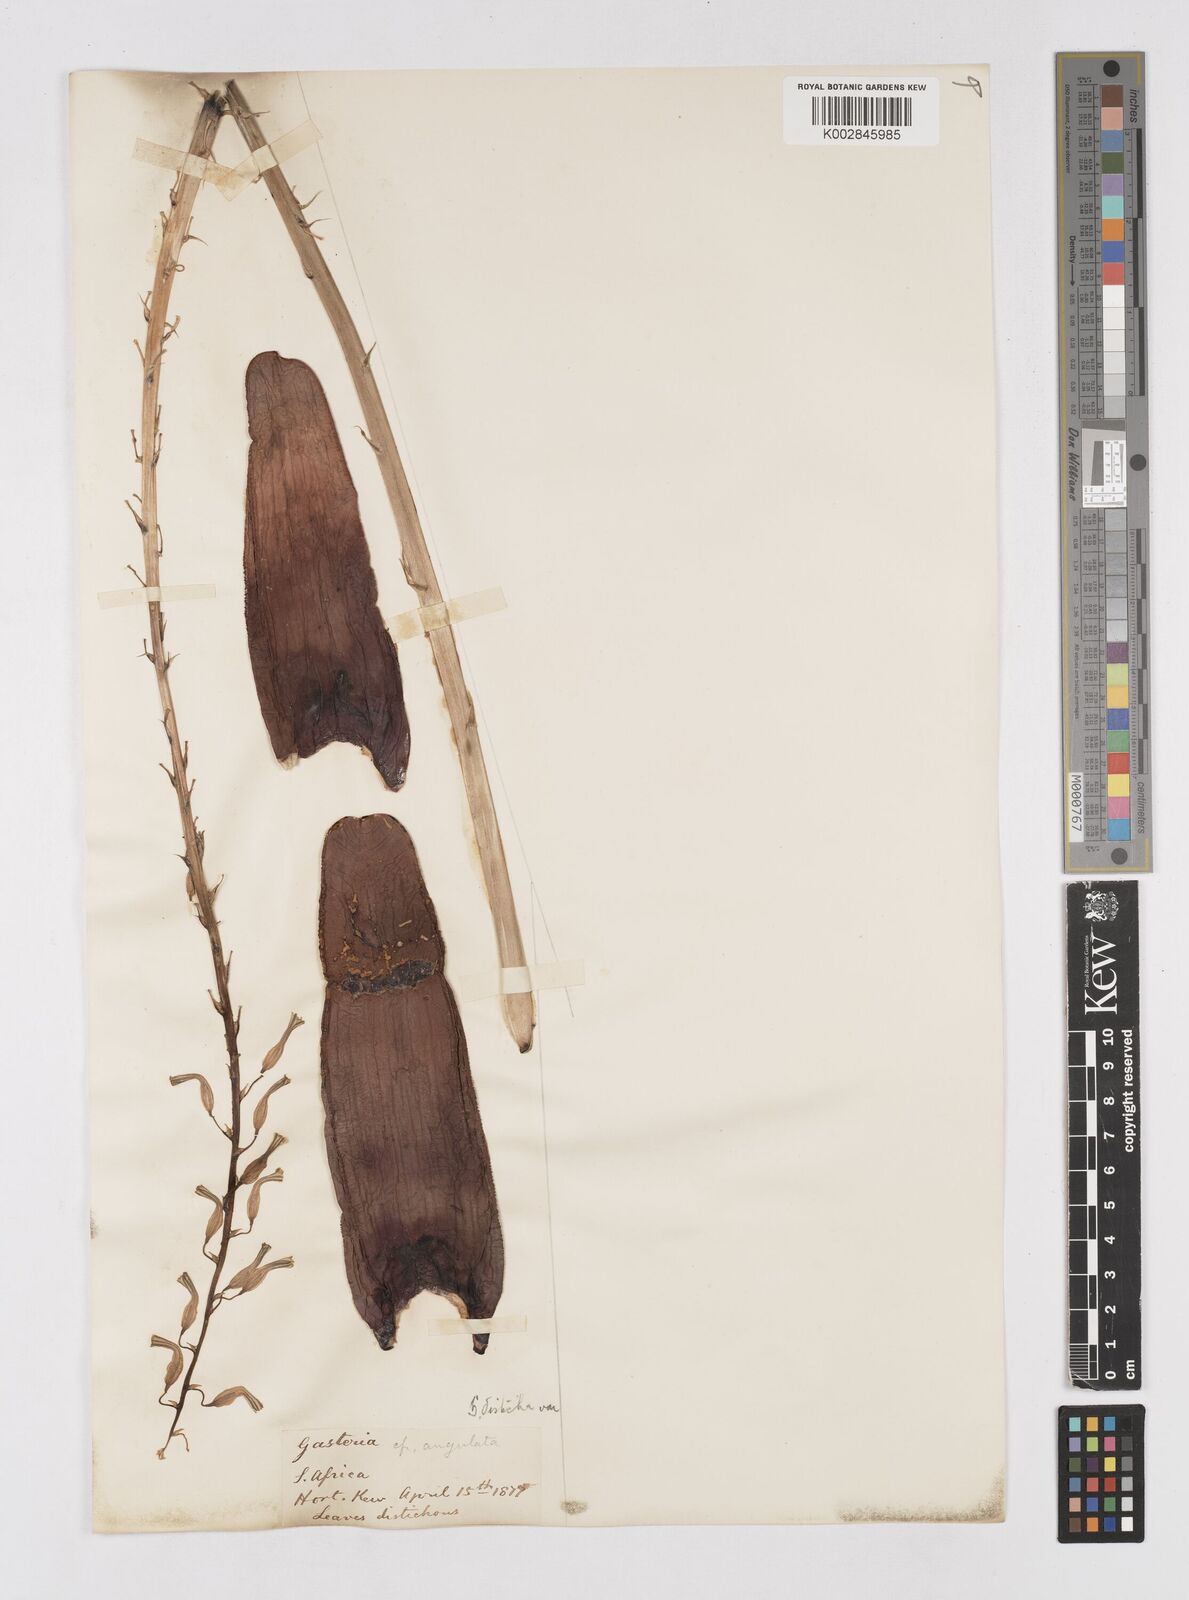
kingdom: Plantae
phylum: Tracheophyta
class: Liliopsida
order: Asparagales
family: Asphodelaceae
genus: Gasteria
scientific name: Gasteria
